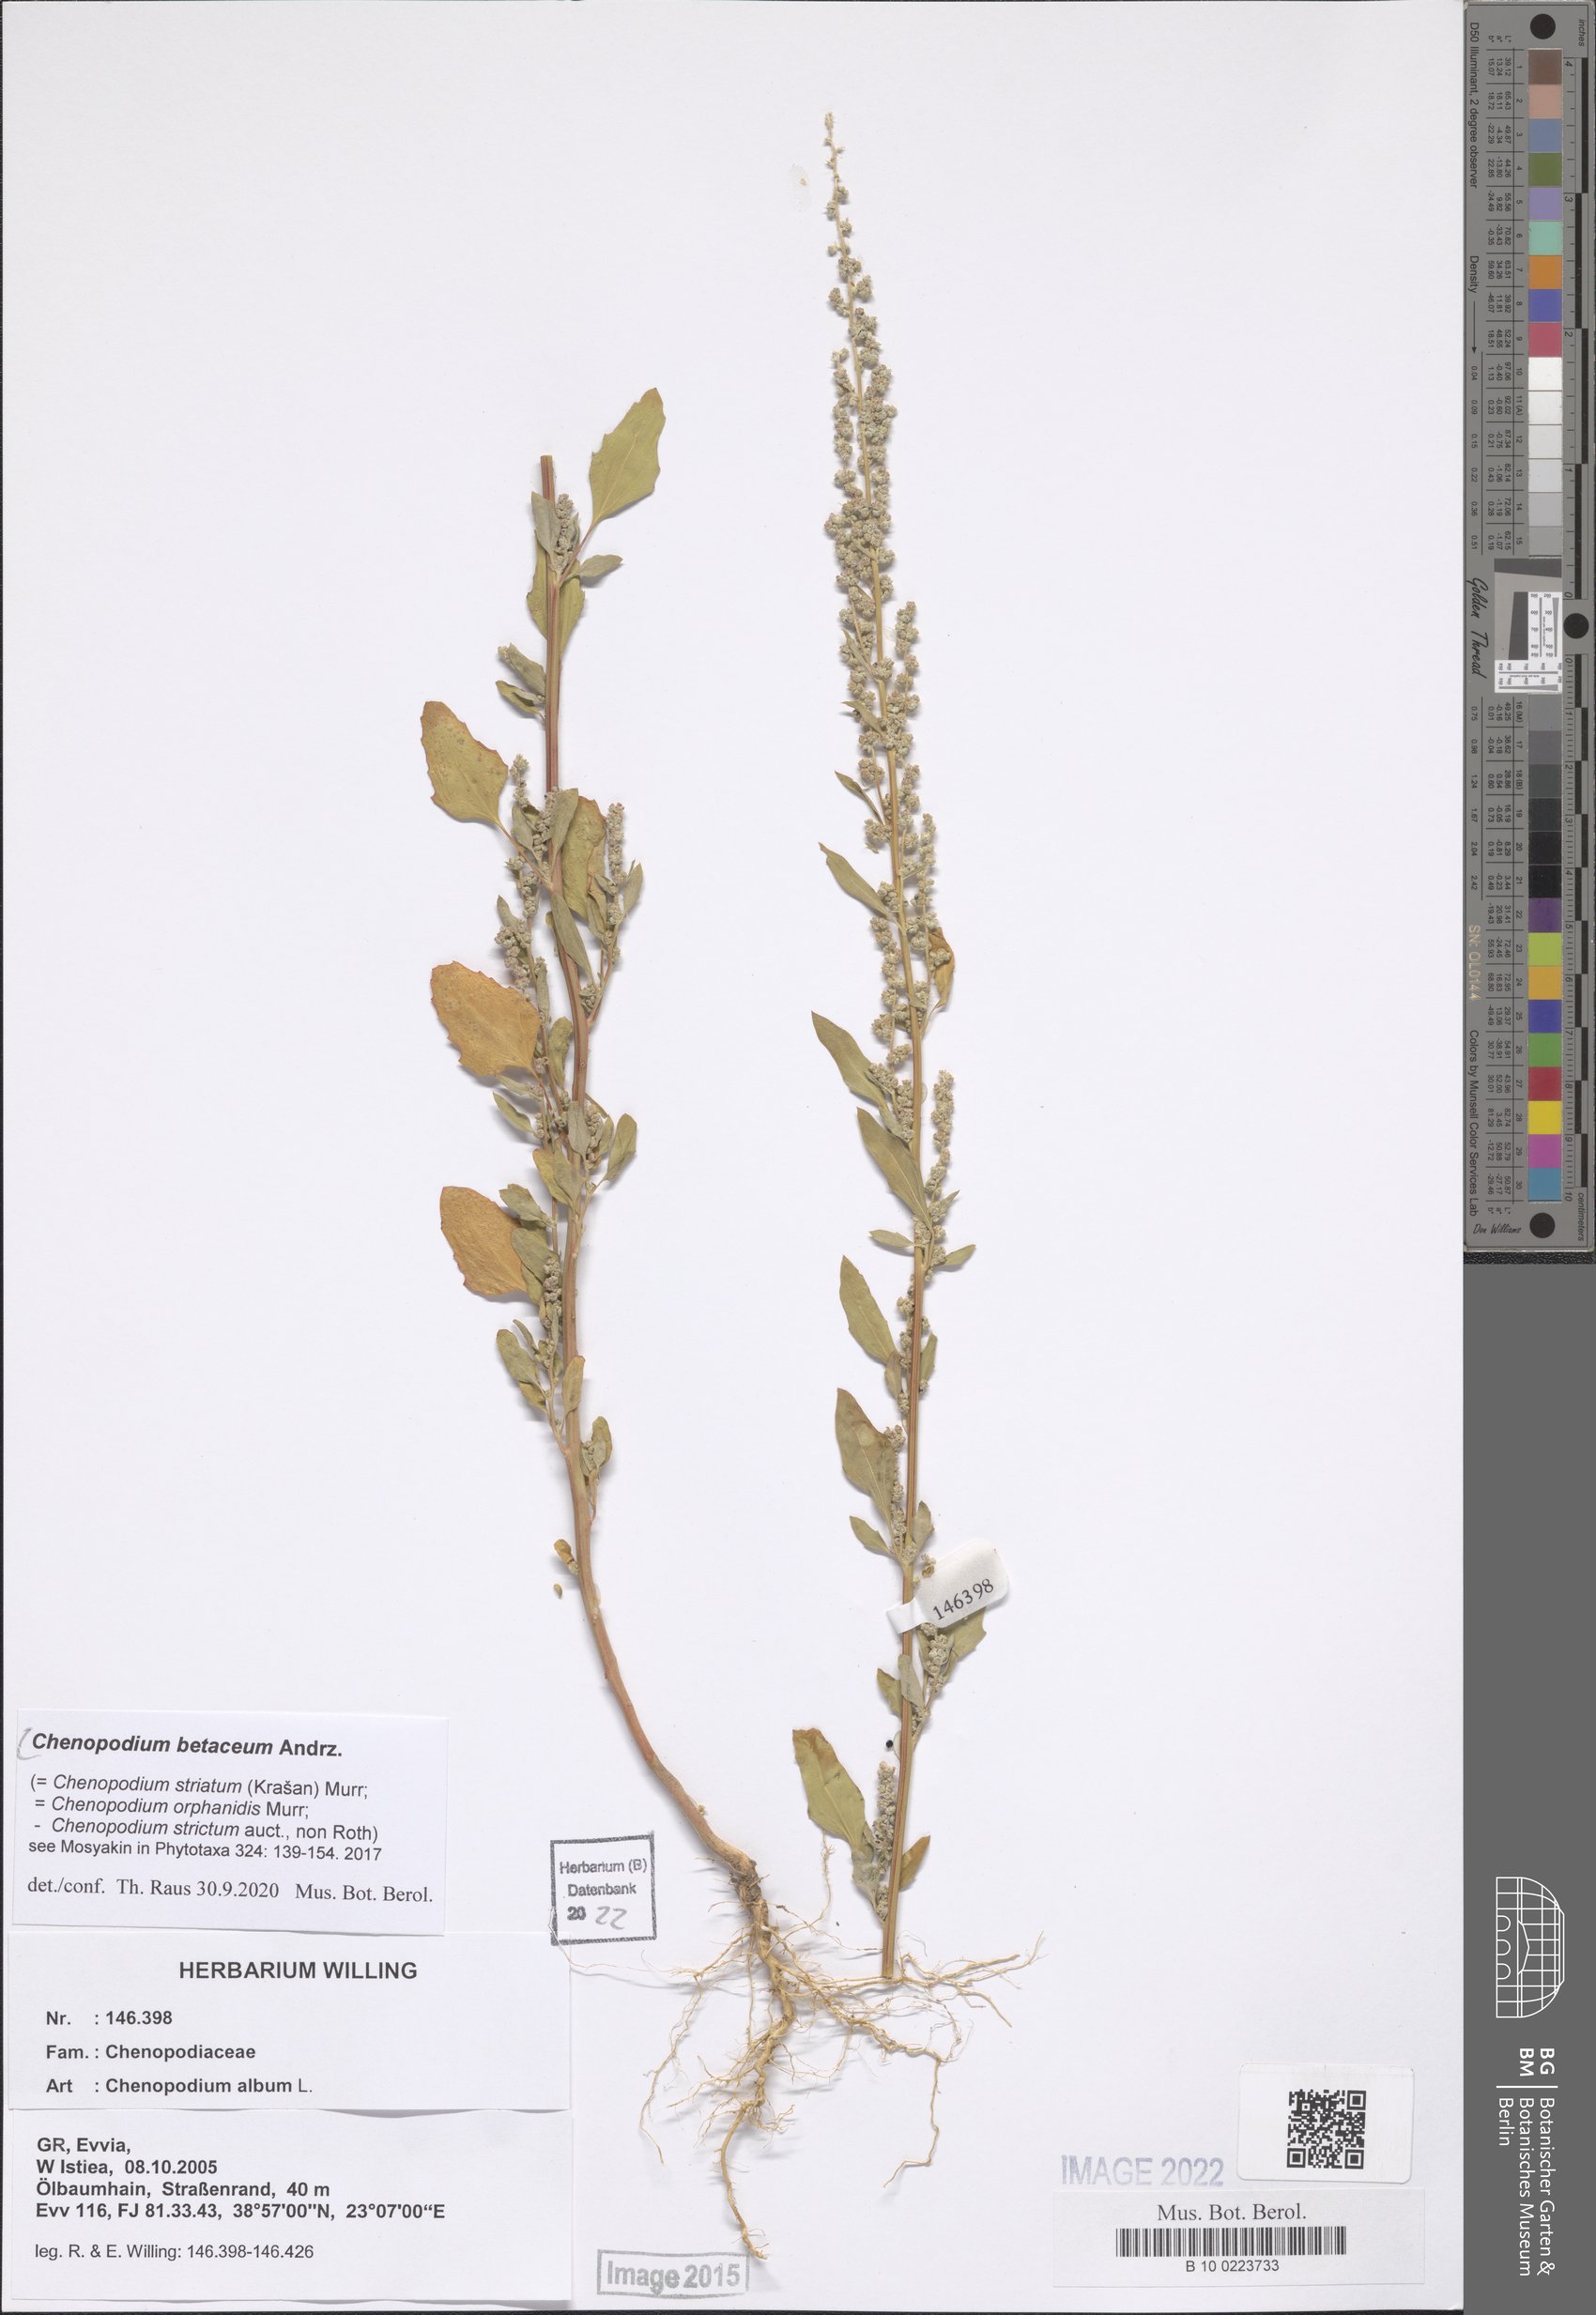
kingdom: Plantae
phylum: Tracheophyta
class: Magnoliopsida
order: Caryophyllales
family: Amaranthaceae
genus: Chenopodium
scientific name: Chenopodium betaceum
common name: Striped goosefoot
